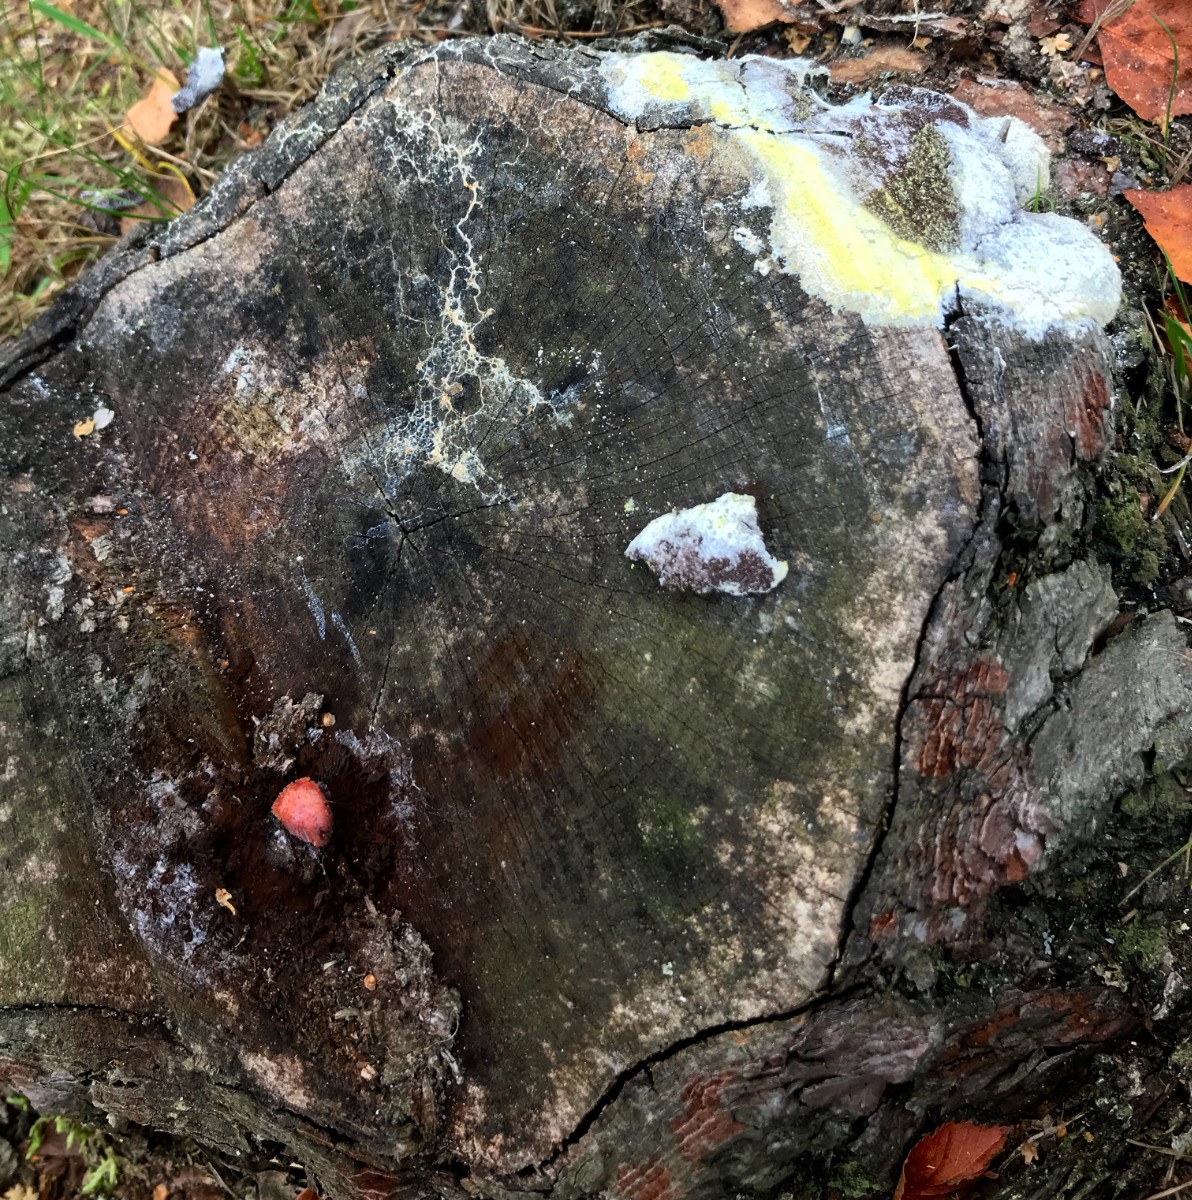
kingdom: Protozoa
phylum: Mycetozoa
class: Myxomycetes
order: Stemonitidales
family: Stemonitidaceae
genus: Symphytocarpus
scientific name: Symphytocarpus flaccidus
